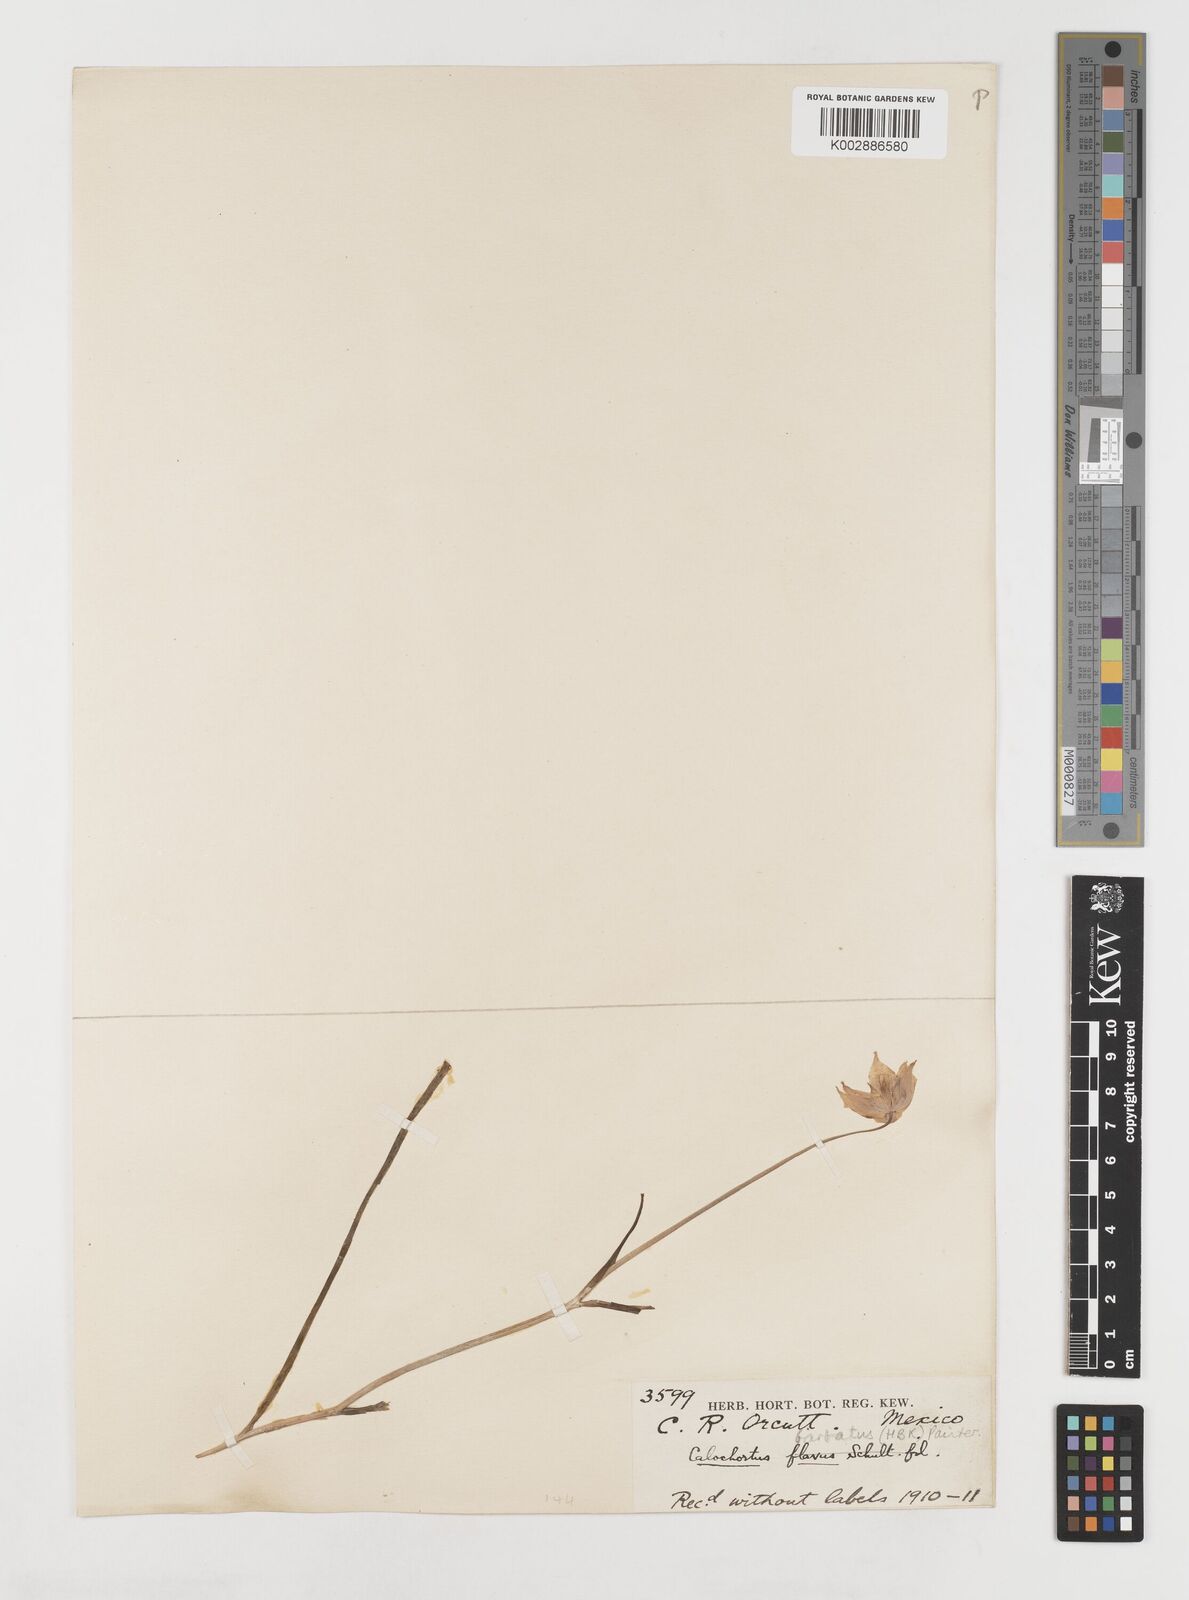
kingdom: Plantae
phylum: Tracheophyta
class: Liliopsida
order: Liliales
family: Liliaceae
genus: Calochortus
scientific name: Calochortus barbatus
